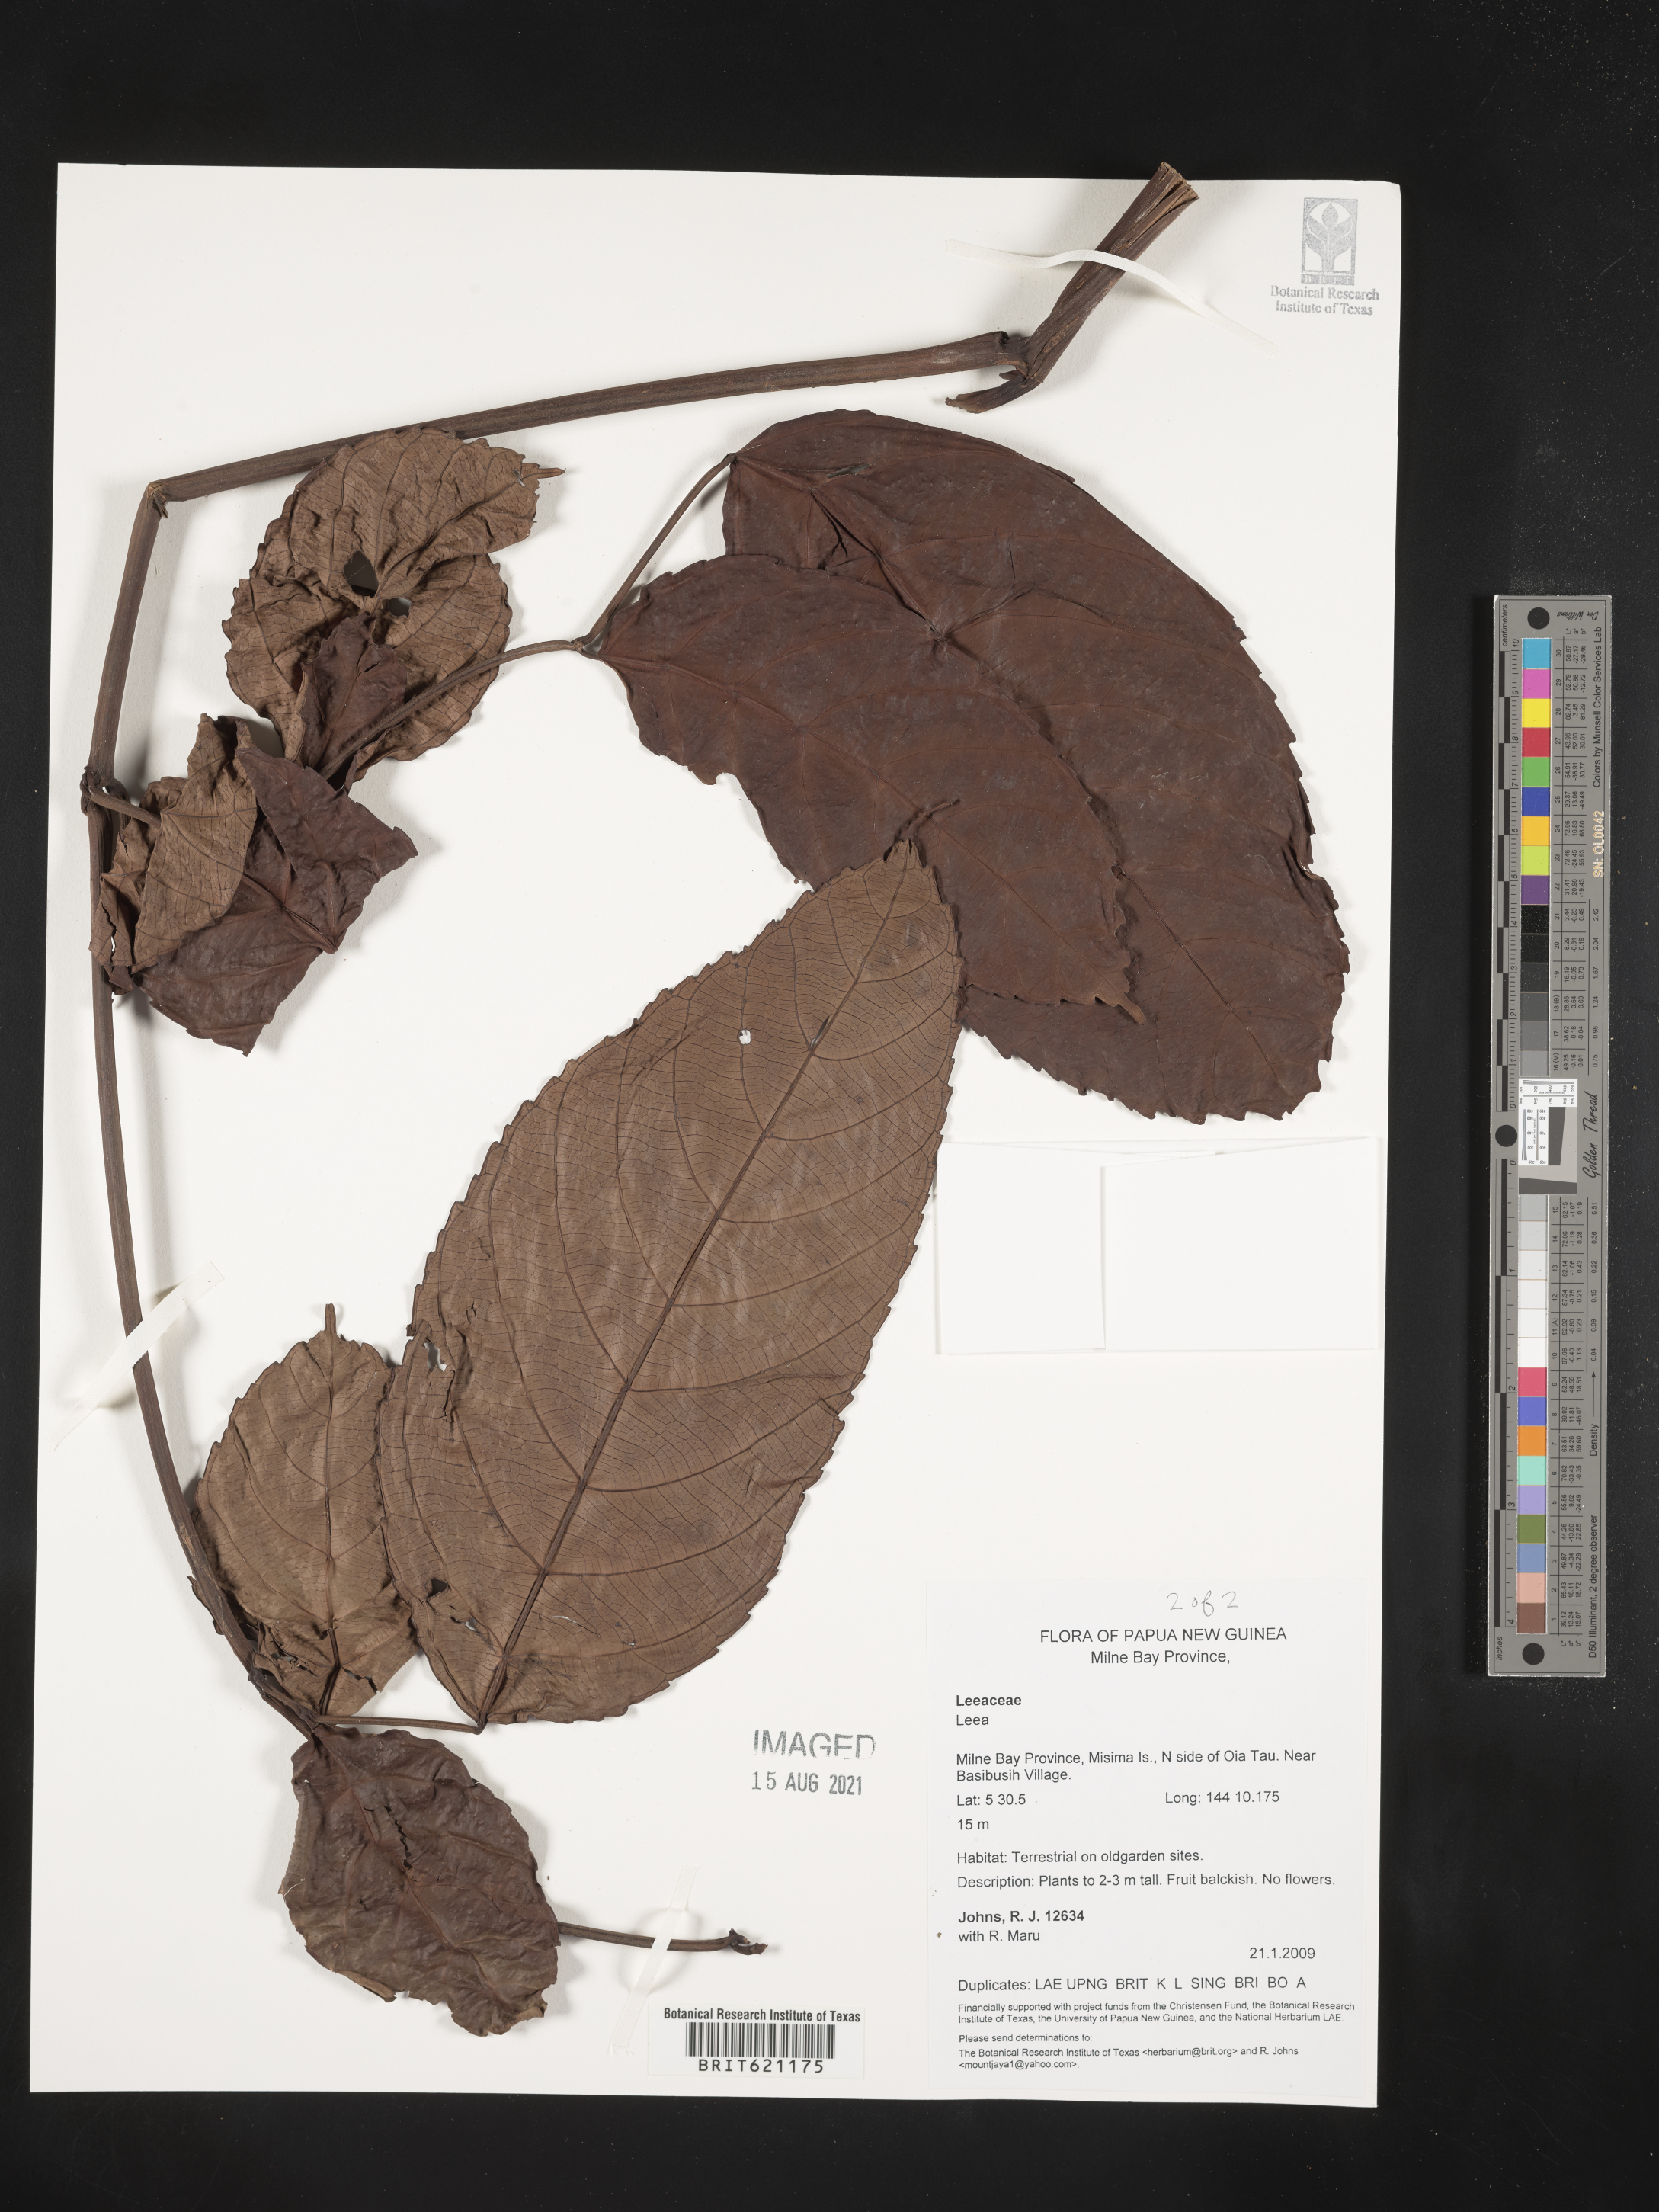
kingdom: Plantae
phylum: Tracheophyta
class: Magnoliopsida
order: Vitales
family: Vitaceae
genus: Leea
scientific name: Leea
